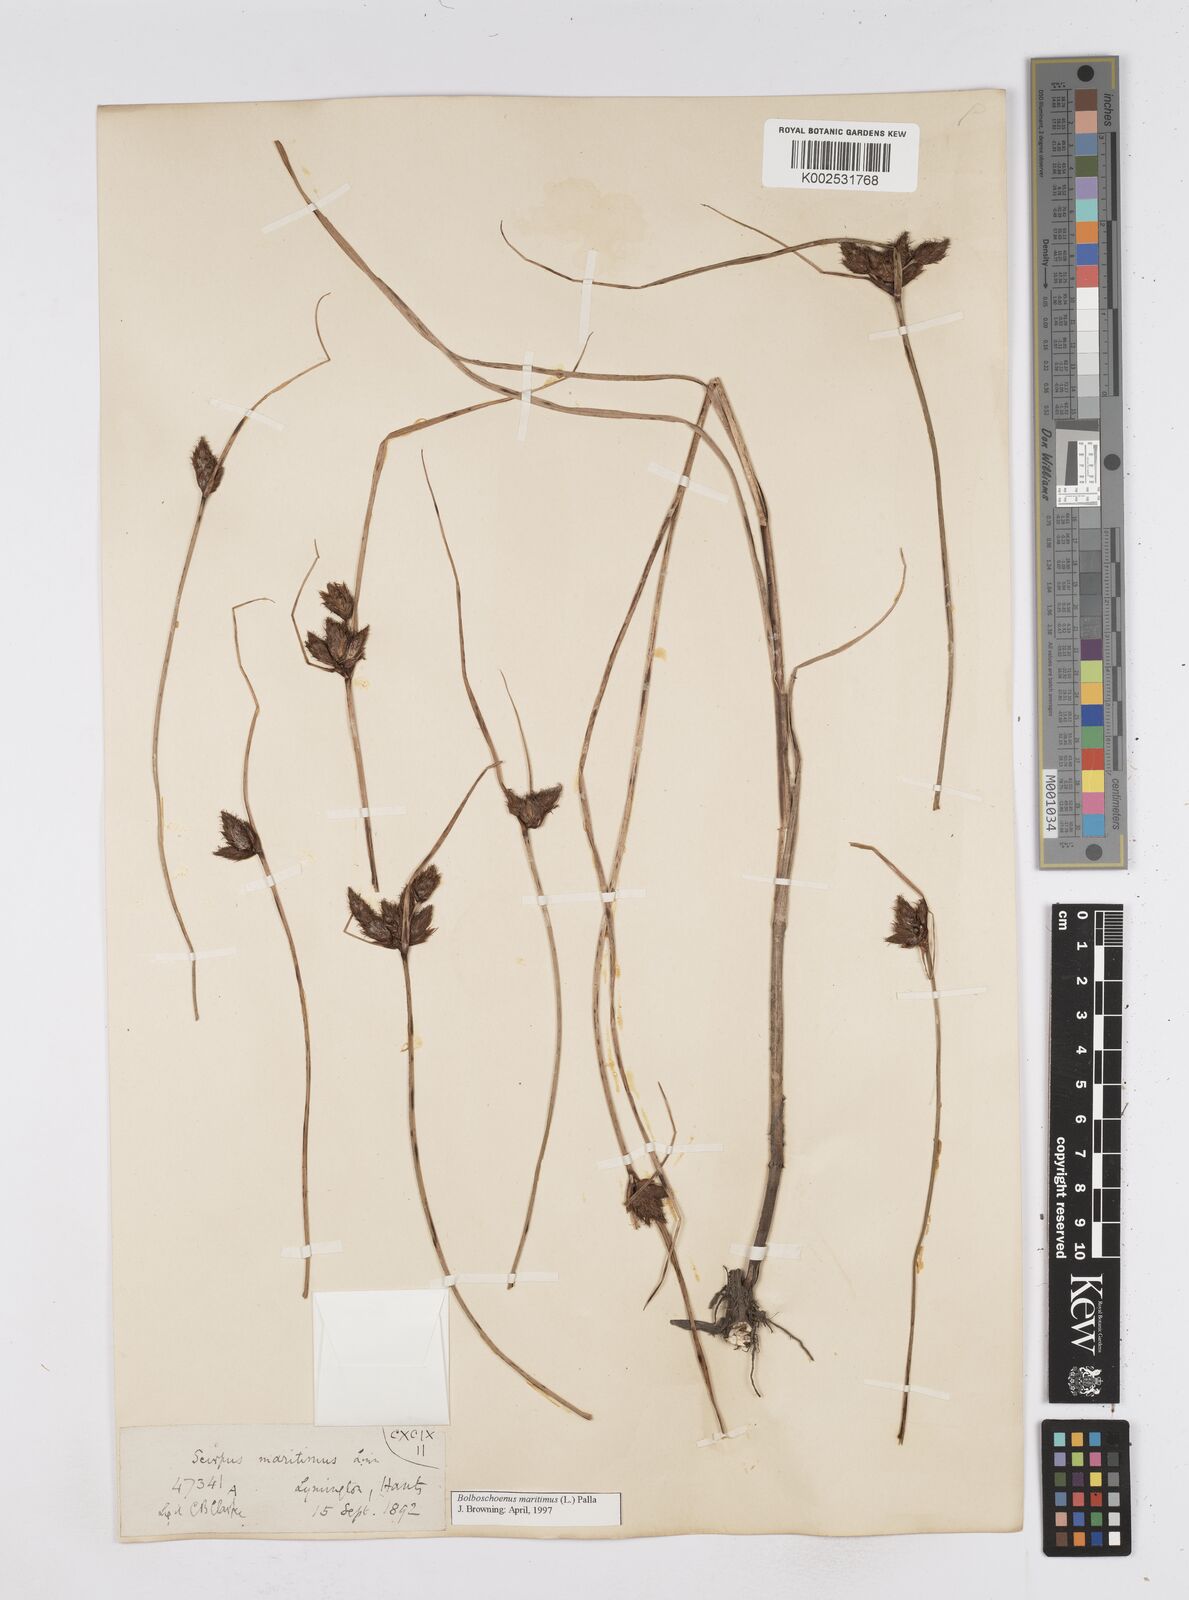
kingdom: Plantae
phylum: Tracheophyta
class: Liliopsida
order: Poales
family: Cyperaceae
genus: Bolboschoenus
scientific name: Bolboschoenus maritimus
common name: Sea club-rush
